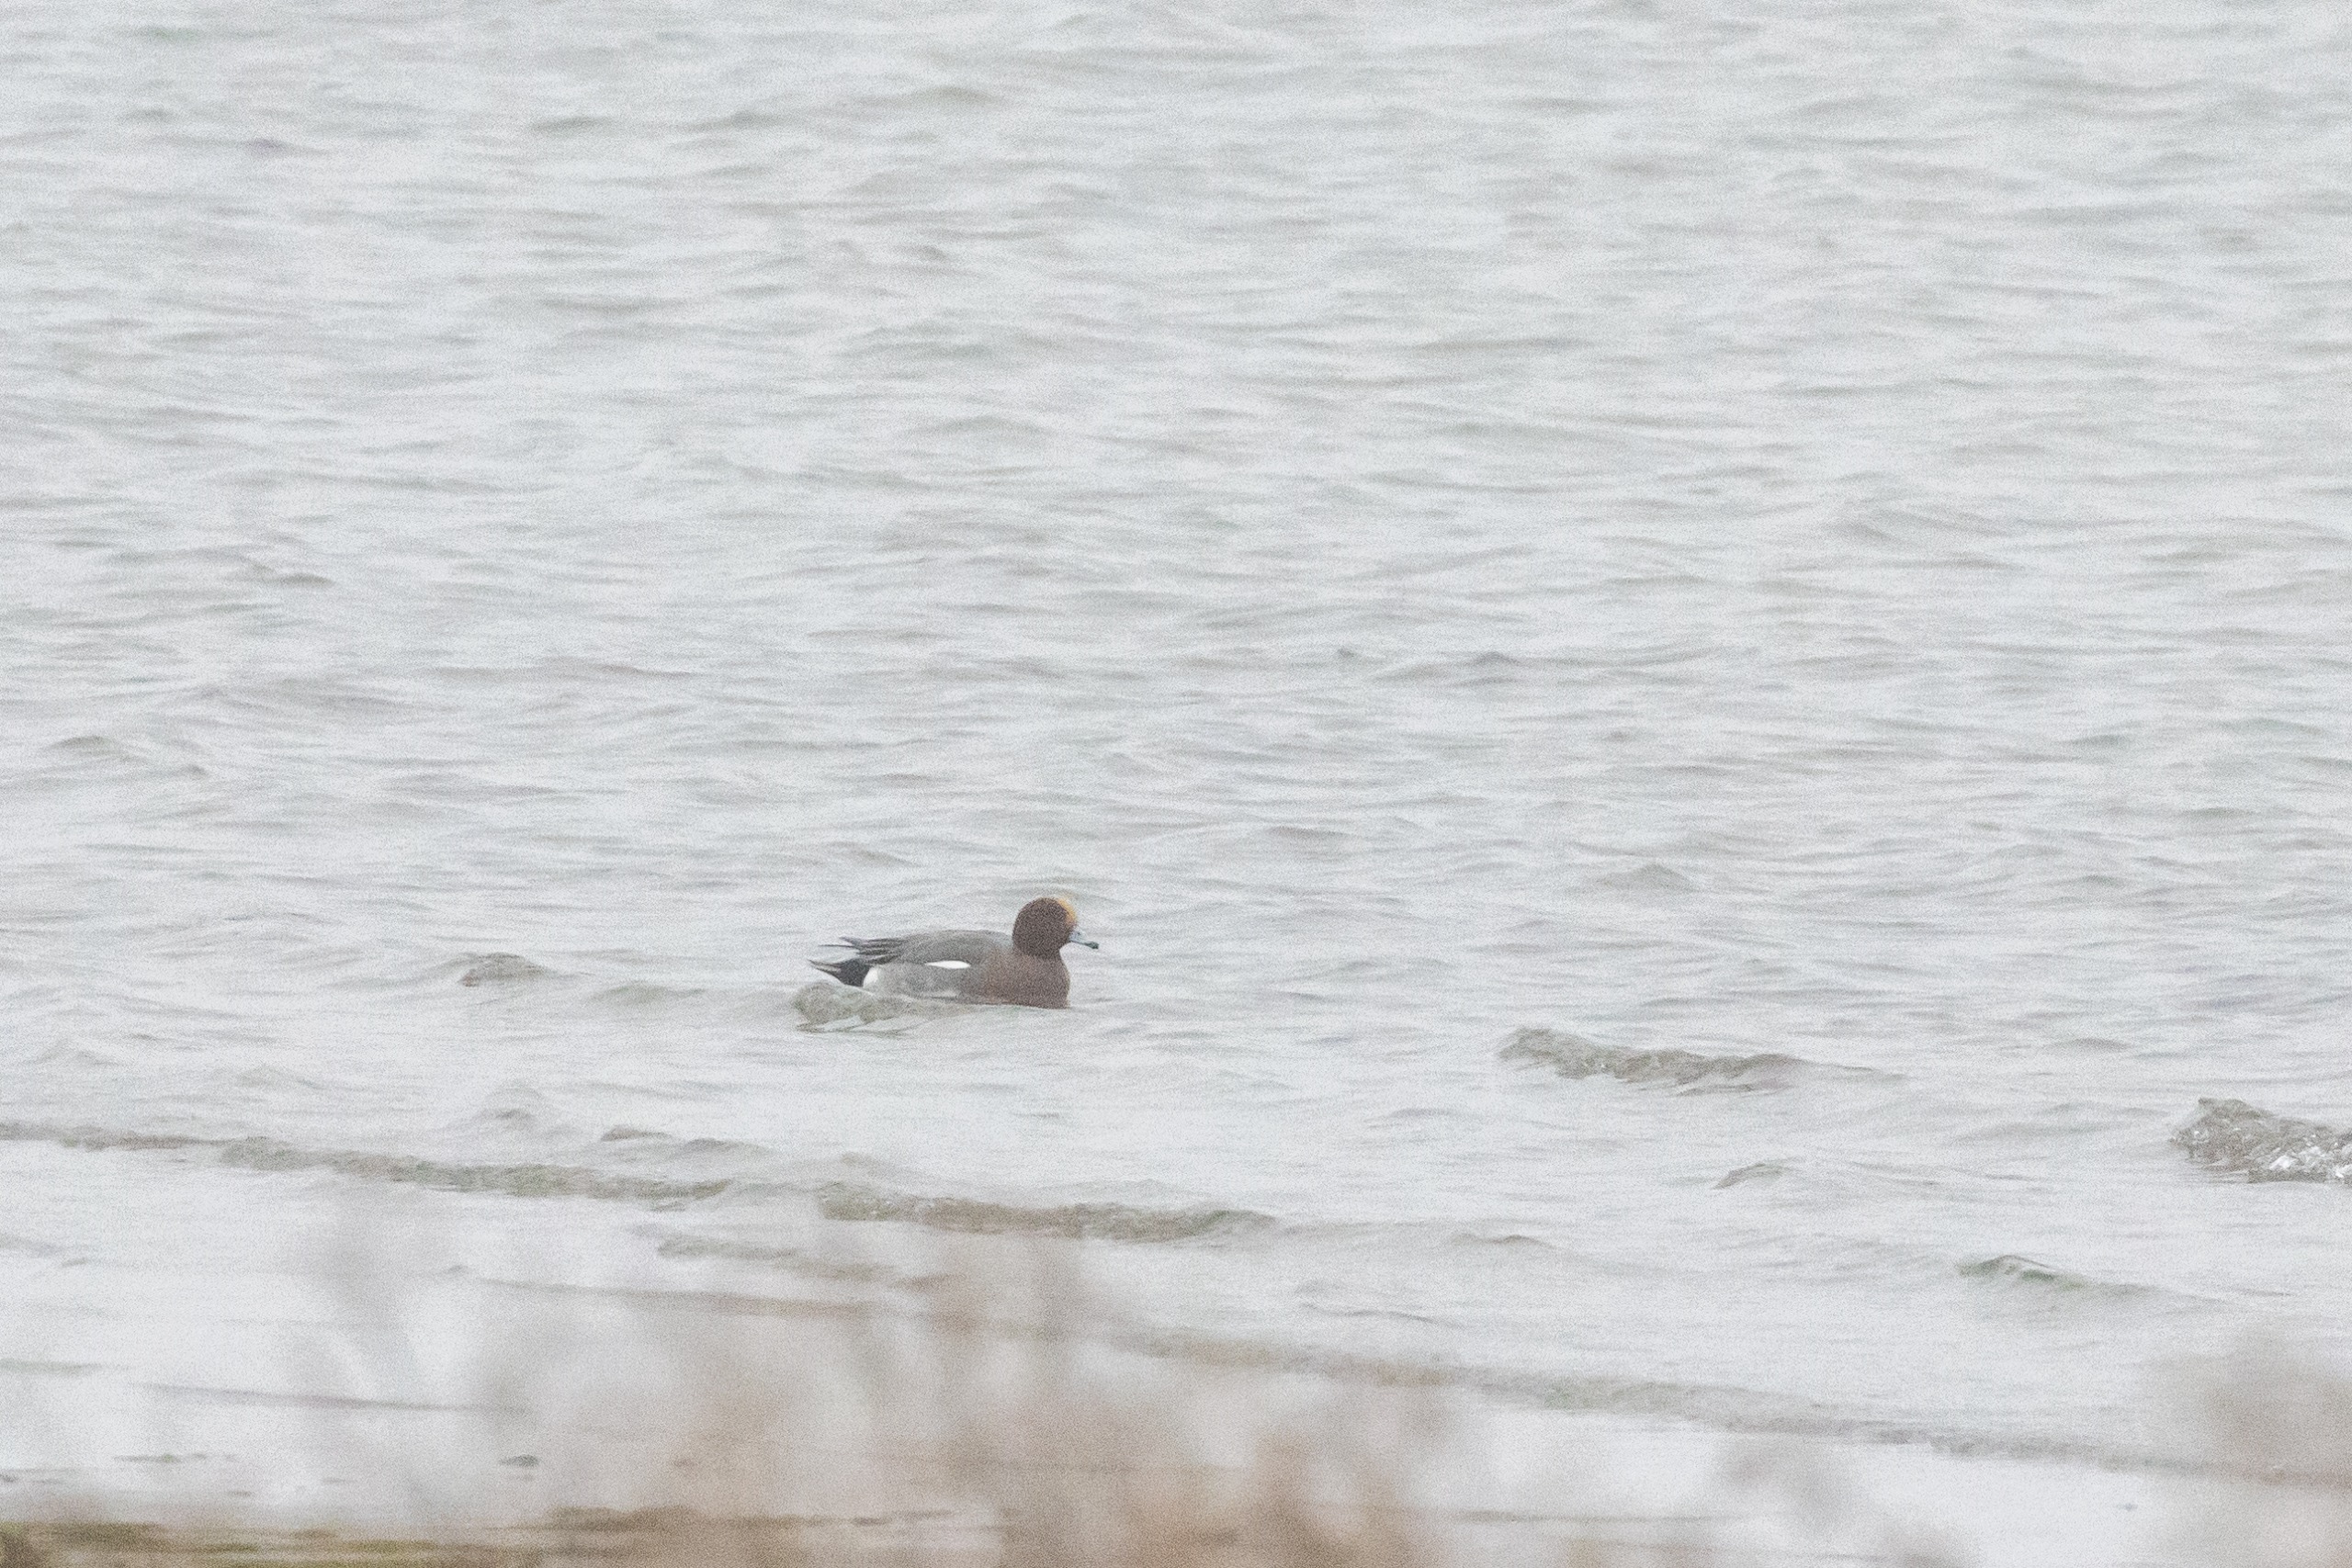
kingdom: Animalia
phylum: Chordata
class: Aves
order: Anseriformes
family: Anatidae
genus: Mareca
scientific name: Mareca penelope
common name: Pibeand
